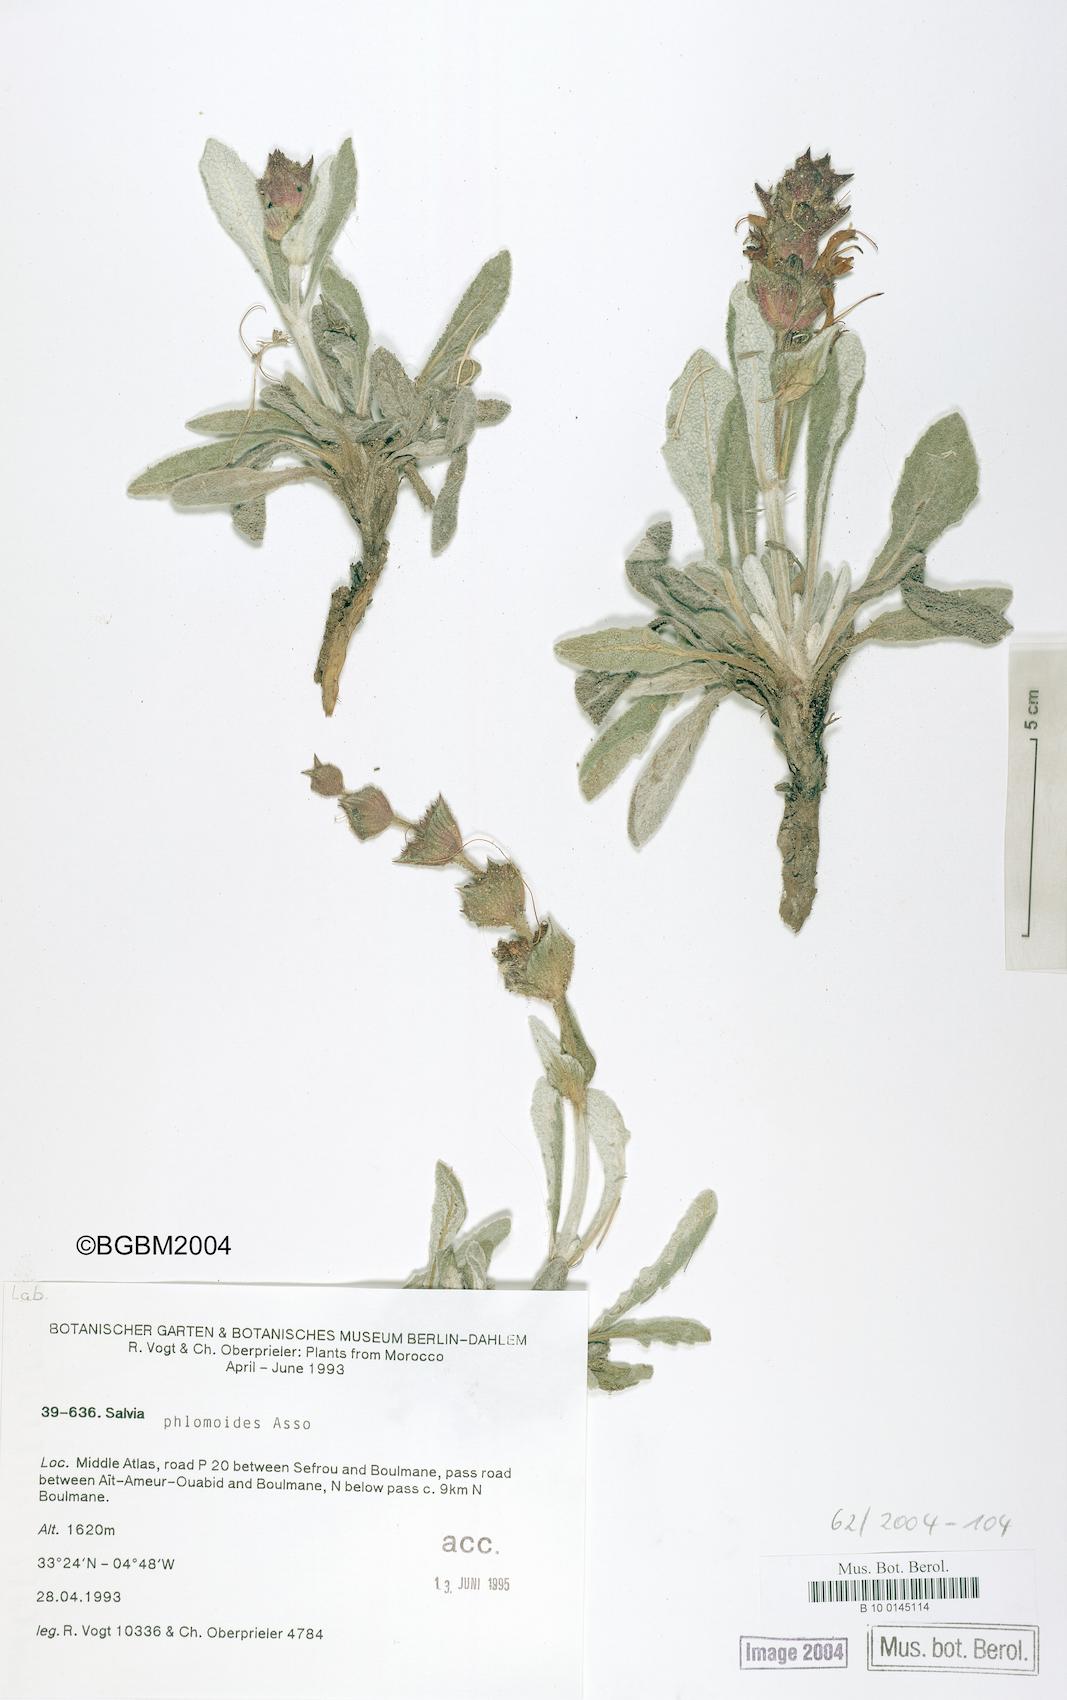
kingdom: Plantae
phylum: Tracheophyta
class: Magnoliopsida
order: Lamiales
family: Lamiaceae
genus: Salvia
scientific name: Salvia phlomoides
